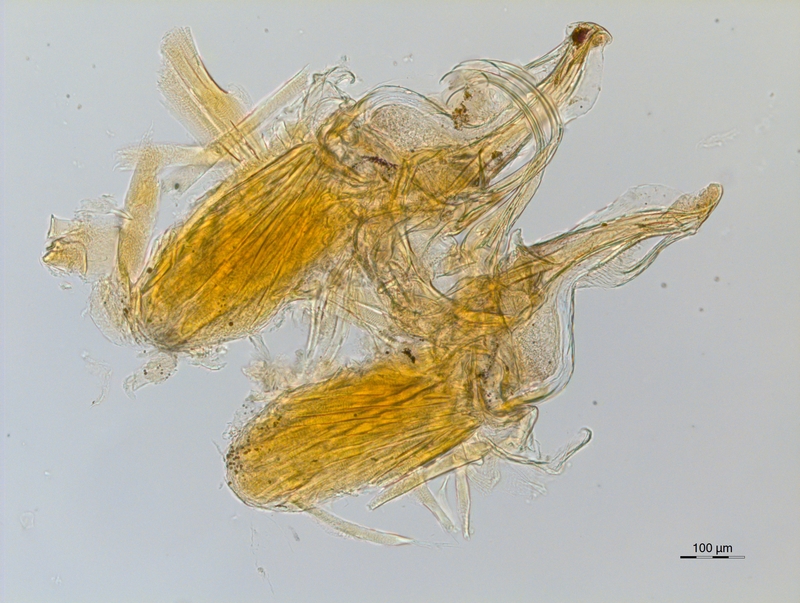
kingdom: Animalia
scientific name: Animalia
